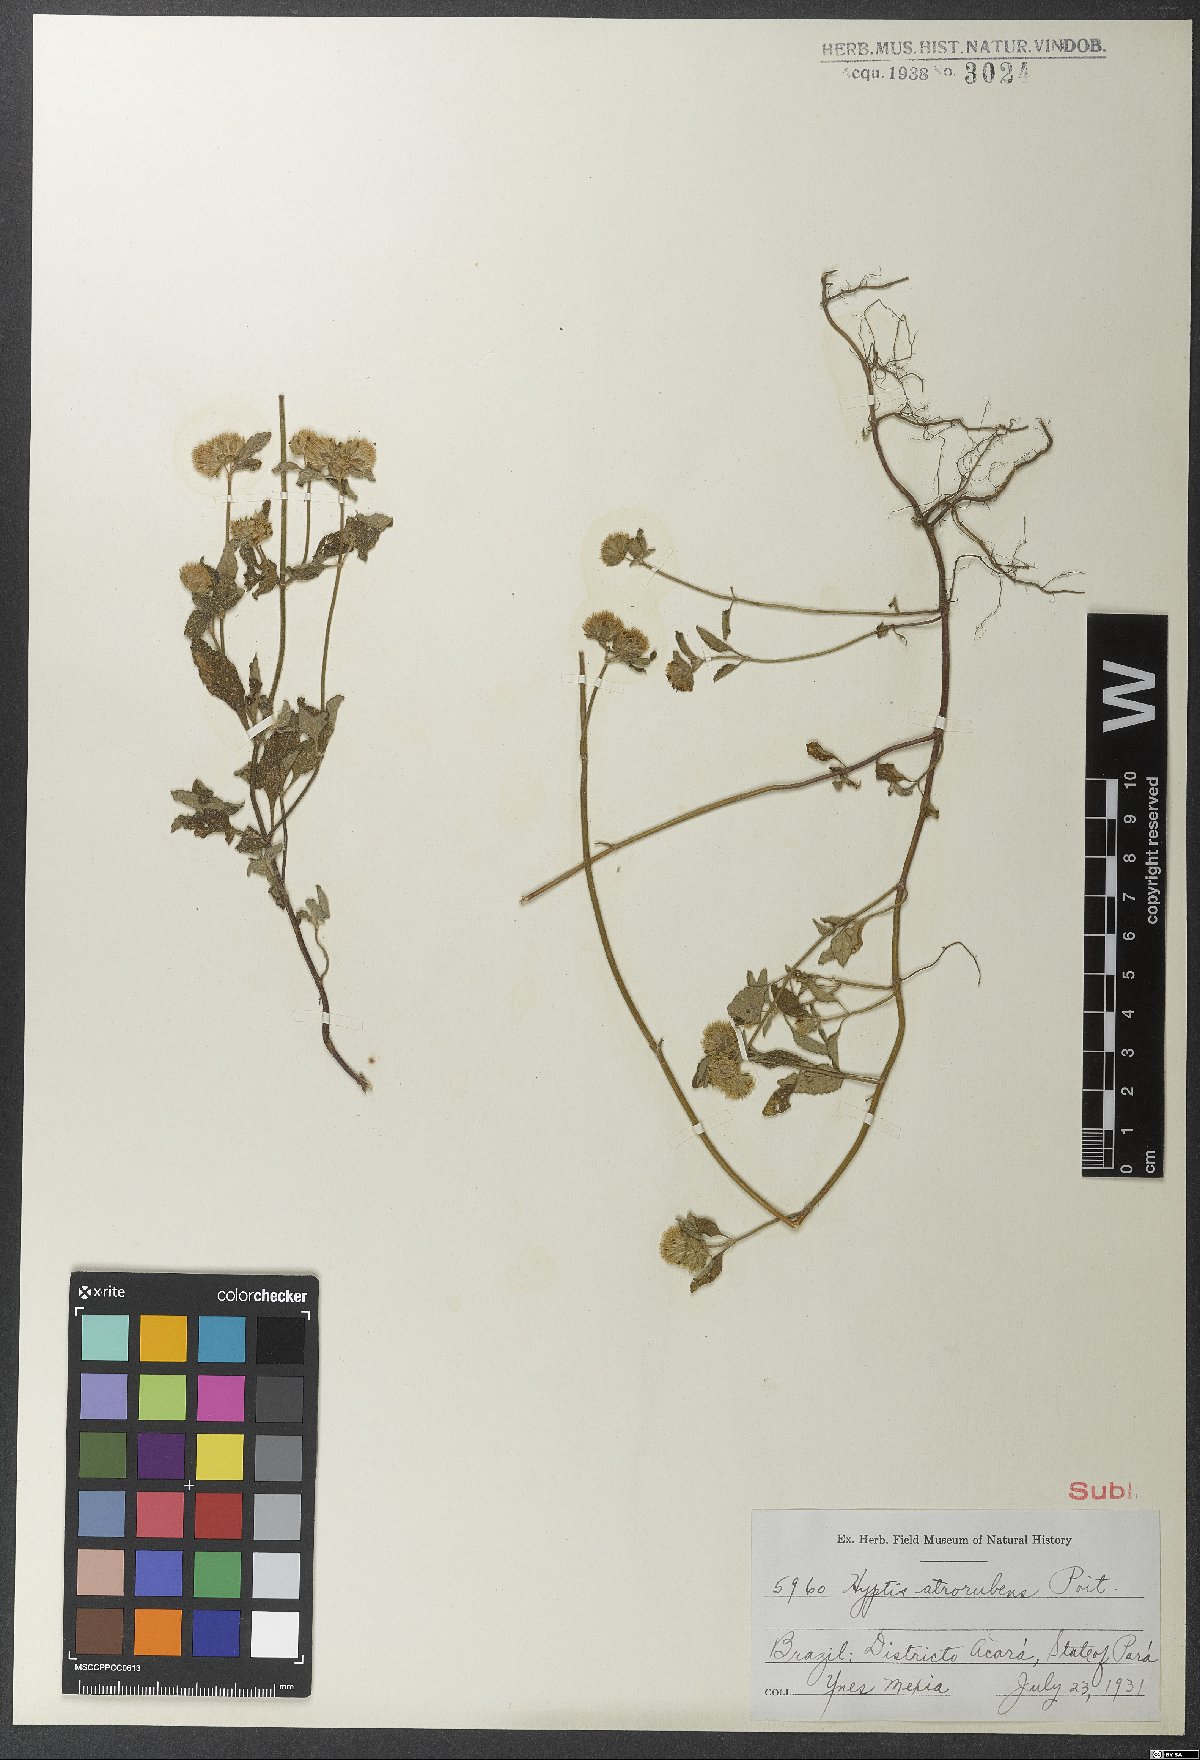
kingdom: Plantae
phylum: Tracheophyta
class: Magnoliopsida
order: Lamiales
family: Lamiaceae
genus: Hyptis
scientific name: Hyptis atrorubens
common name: Lanmant
